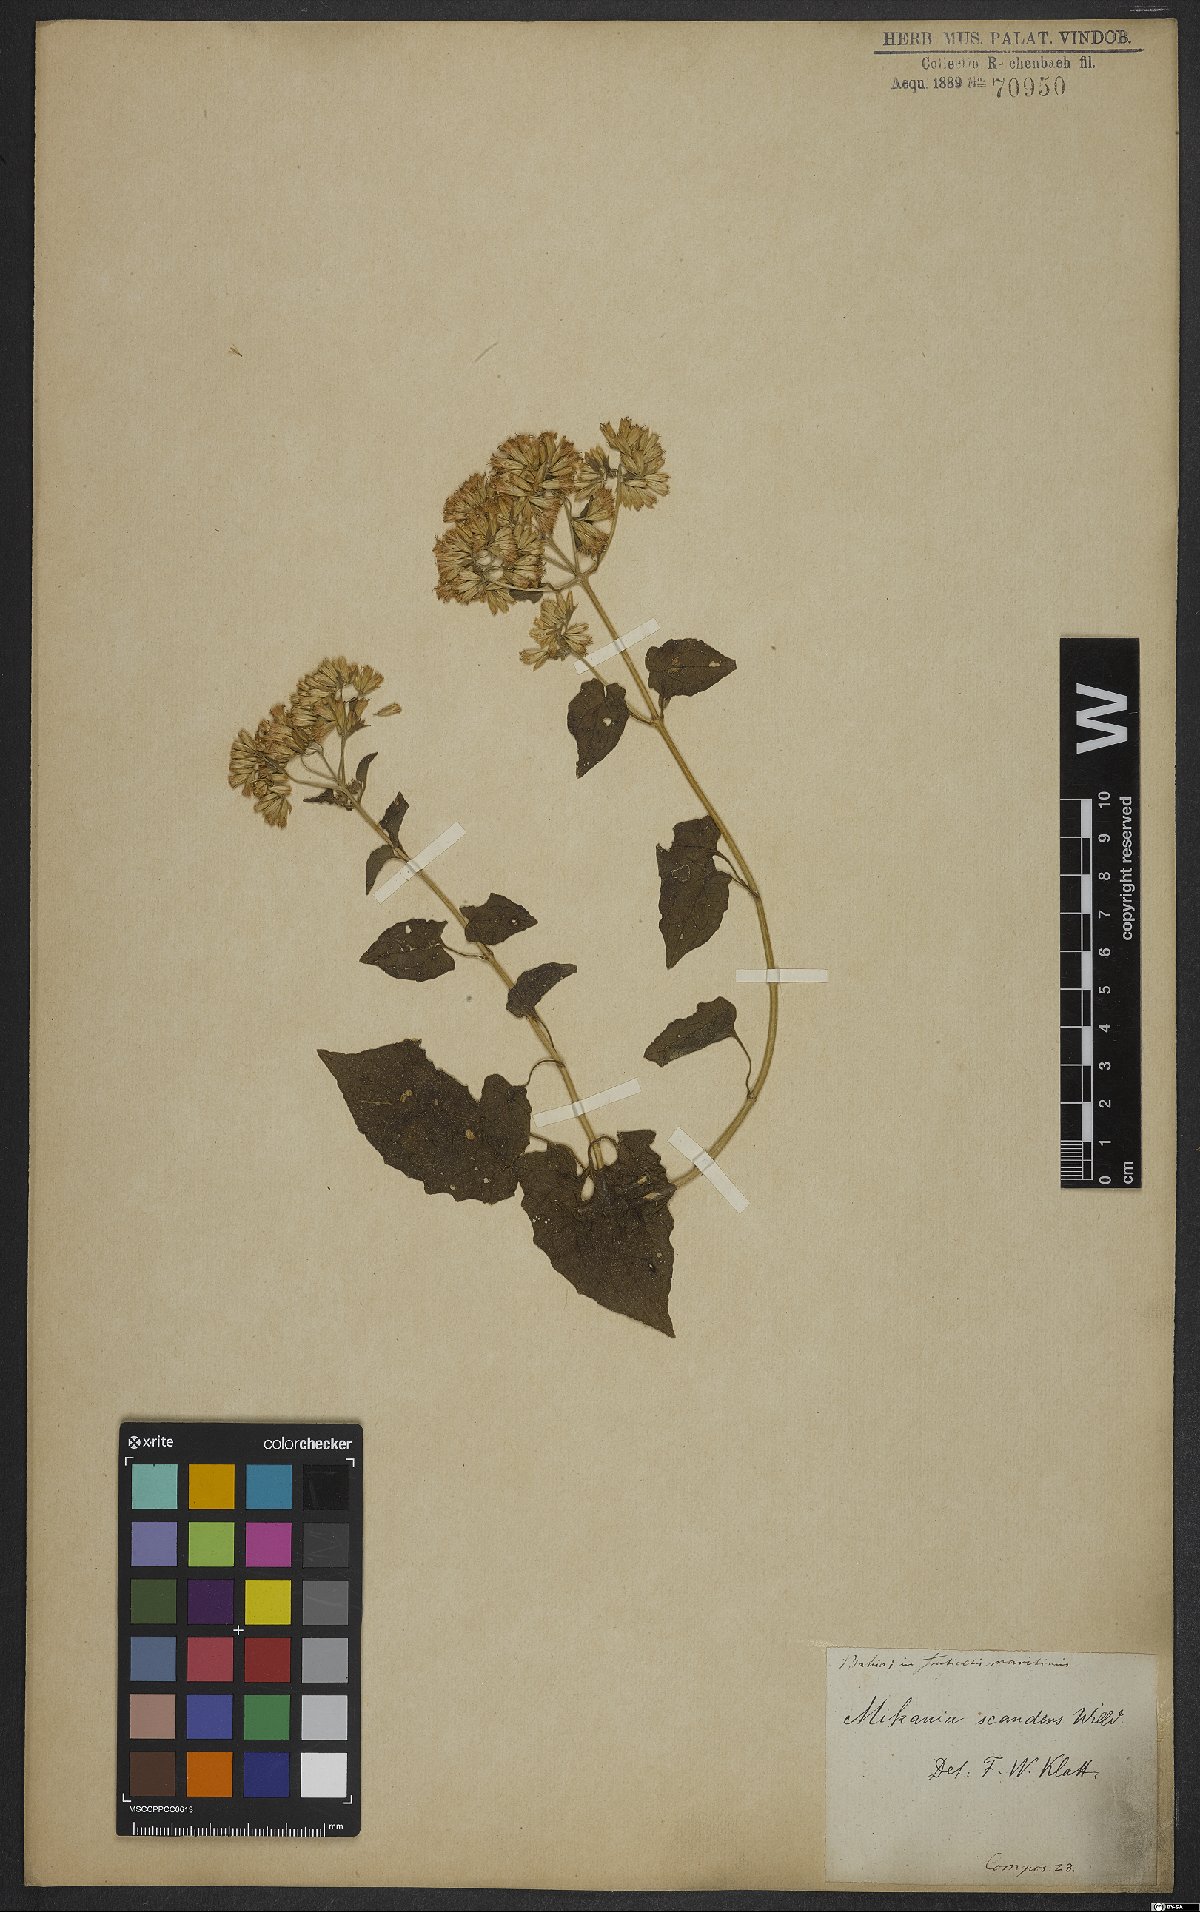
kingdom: Plantae
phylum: Tracheophyta
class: Magnoliopsida
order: Asterales
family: Asteraceae
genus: Mikania
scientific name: Mikania scandens
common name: Climbing hempvine
